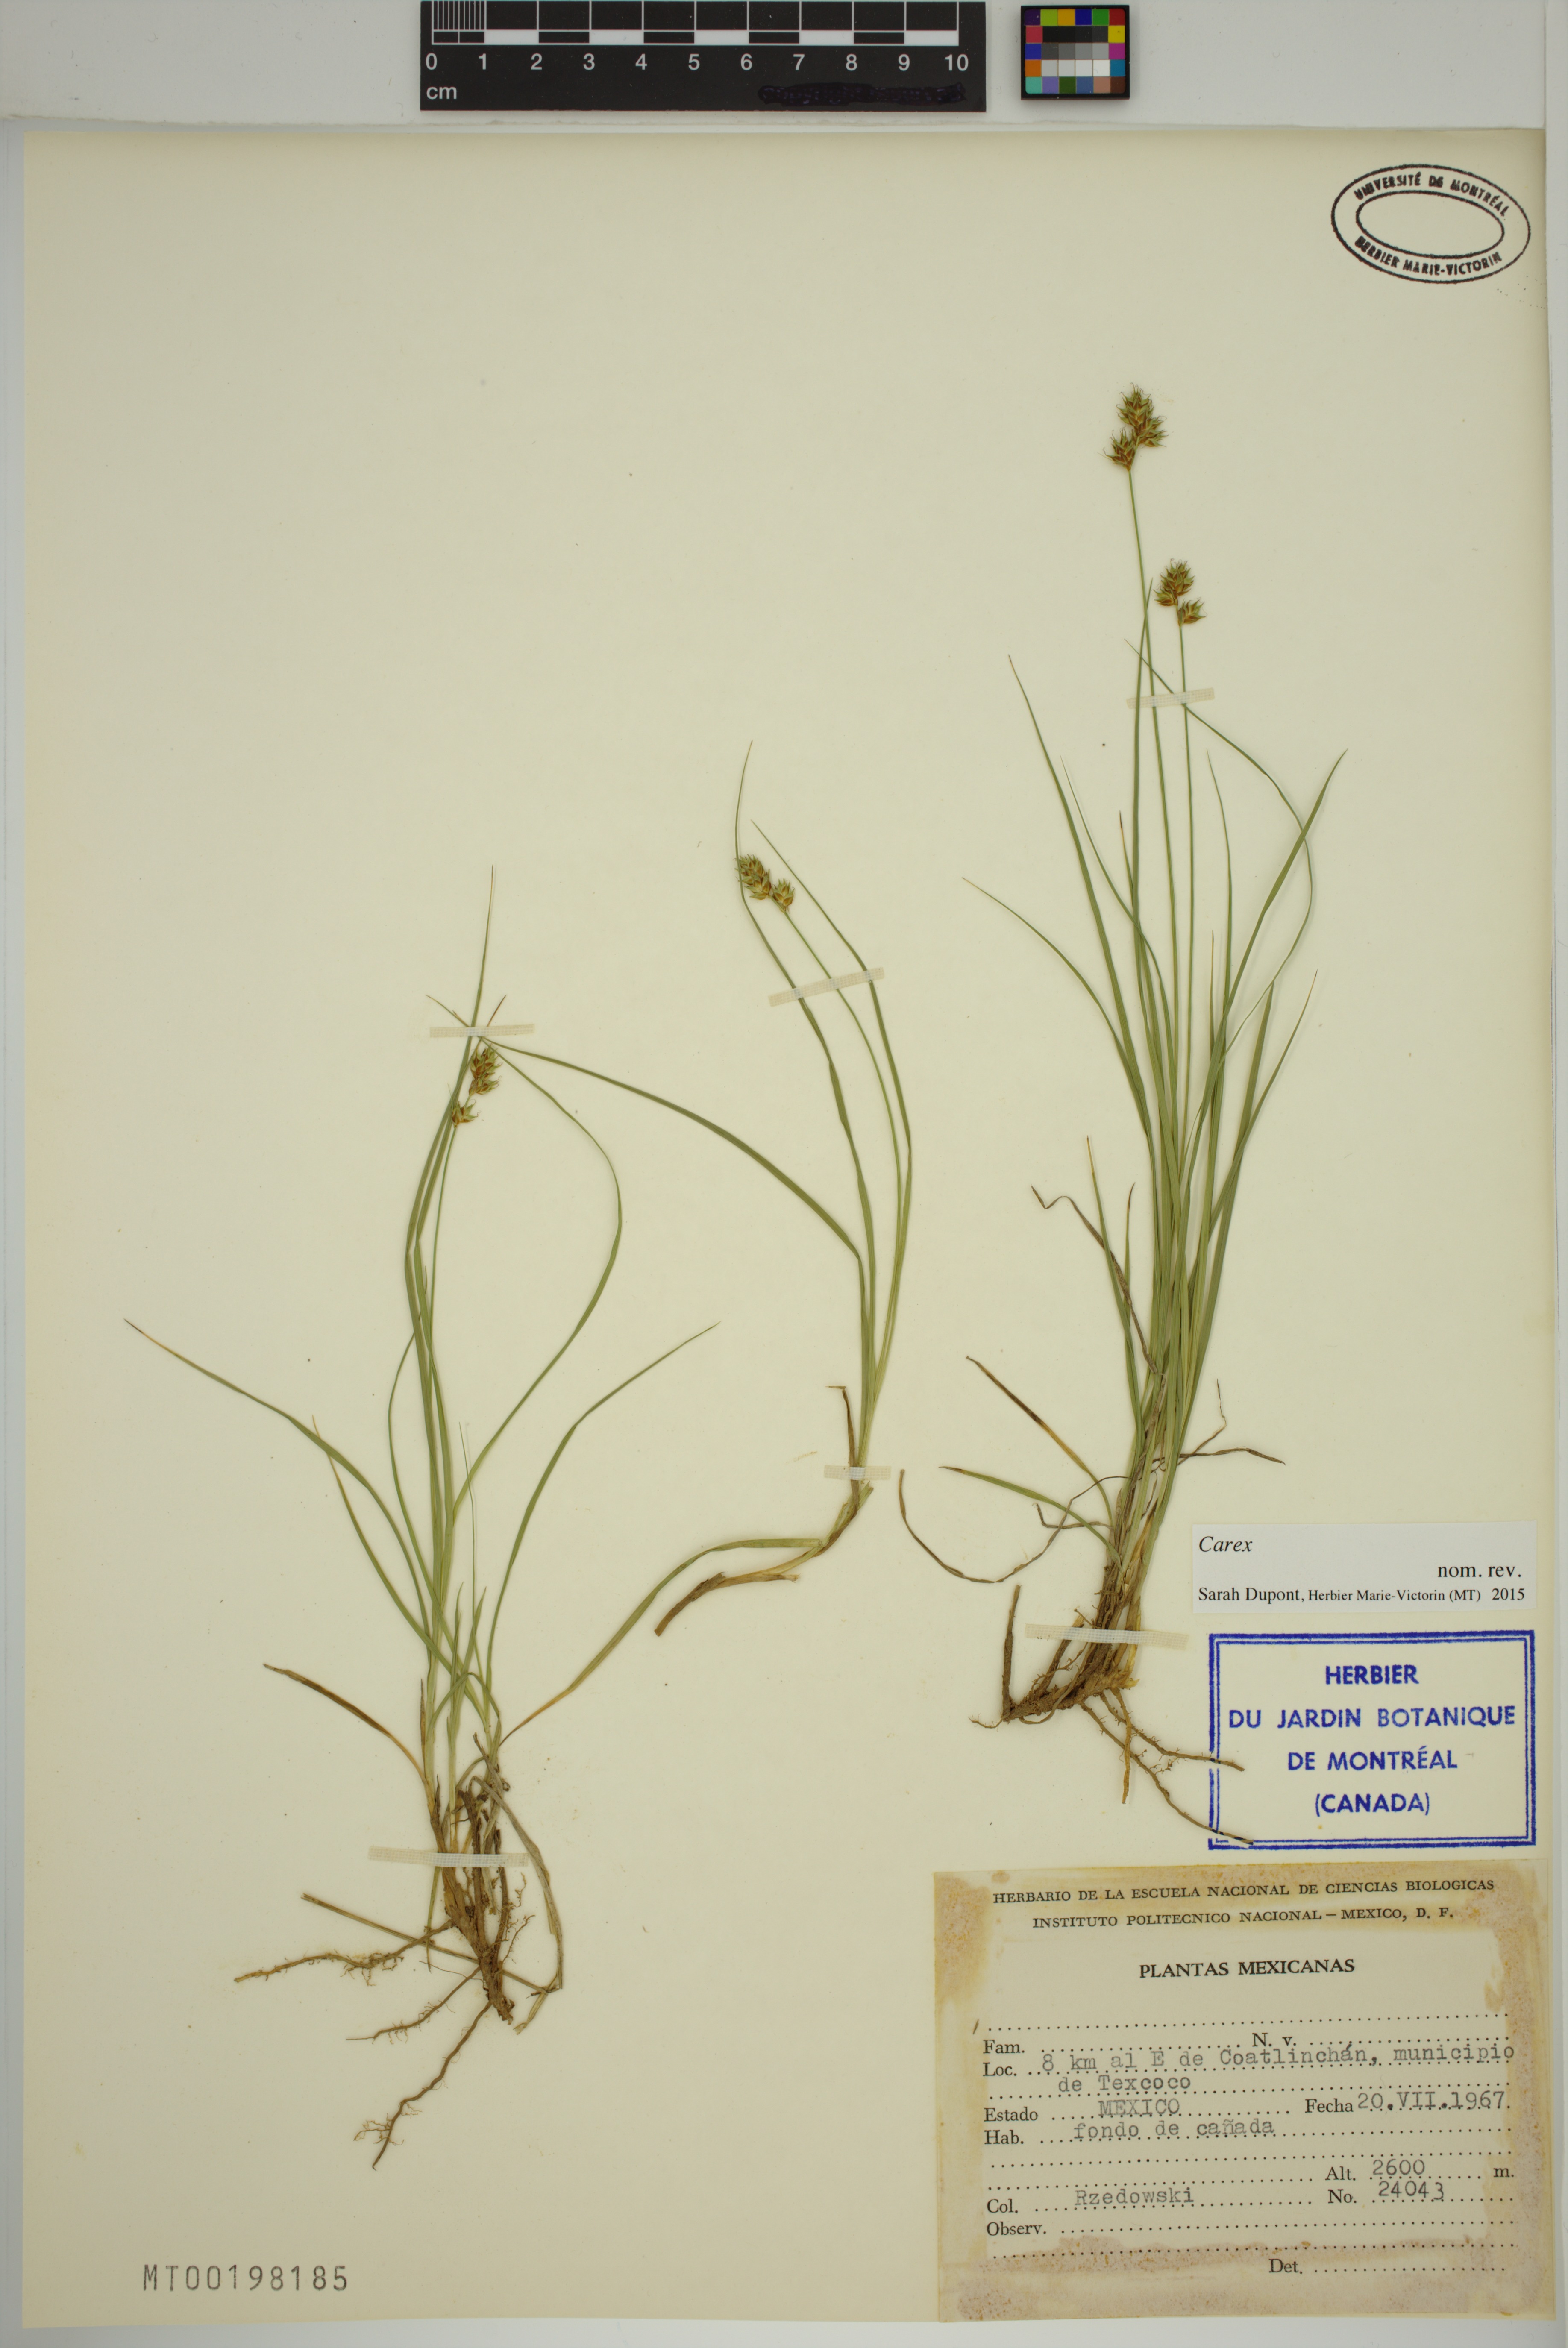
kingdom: Plantae
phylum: Tracheophyta
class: Liliopsida
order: Poales
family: Cyperaceae
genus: Carex
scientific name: Carex
